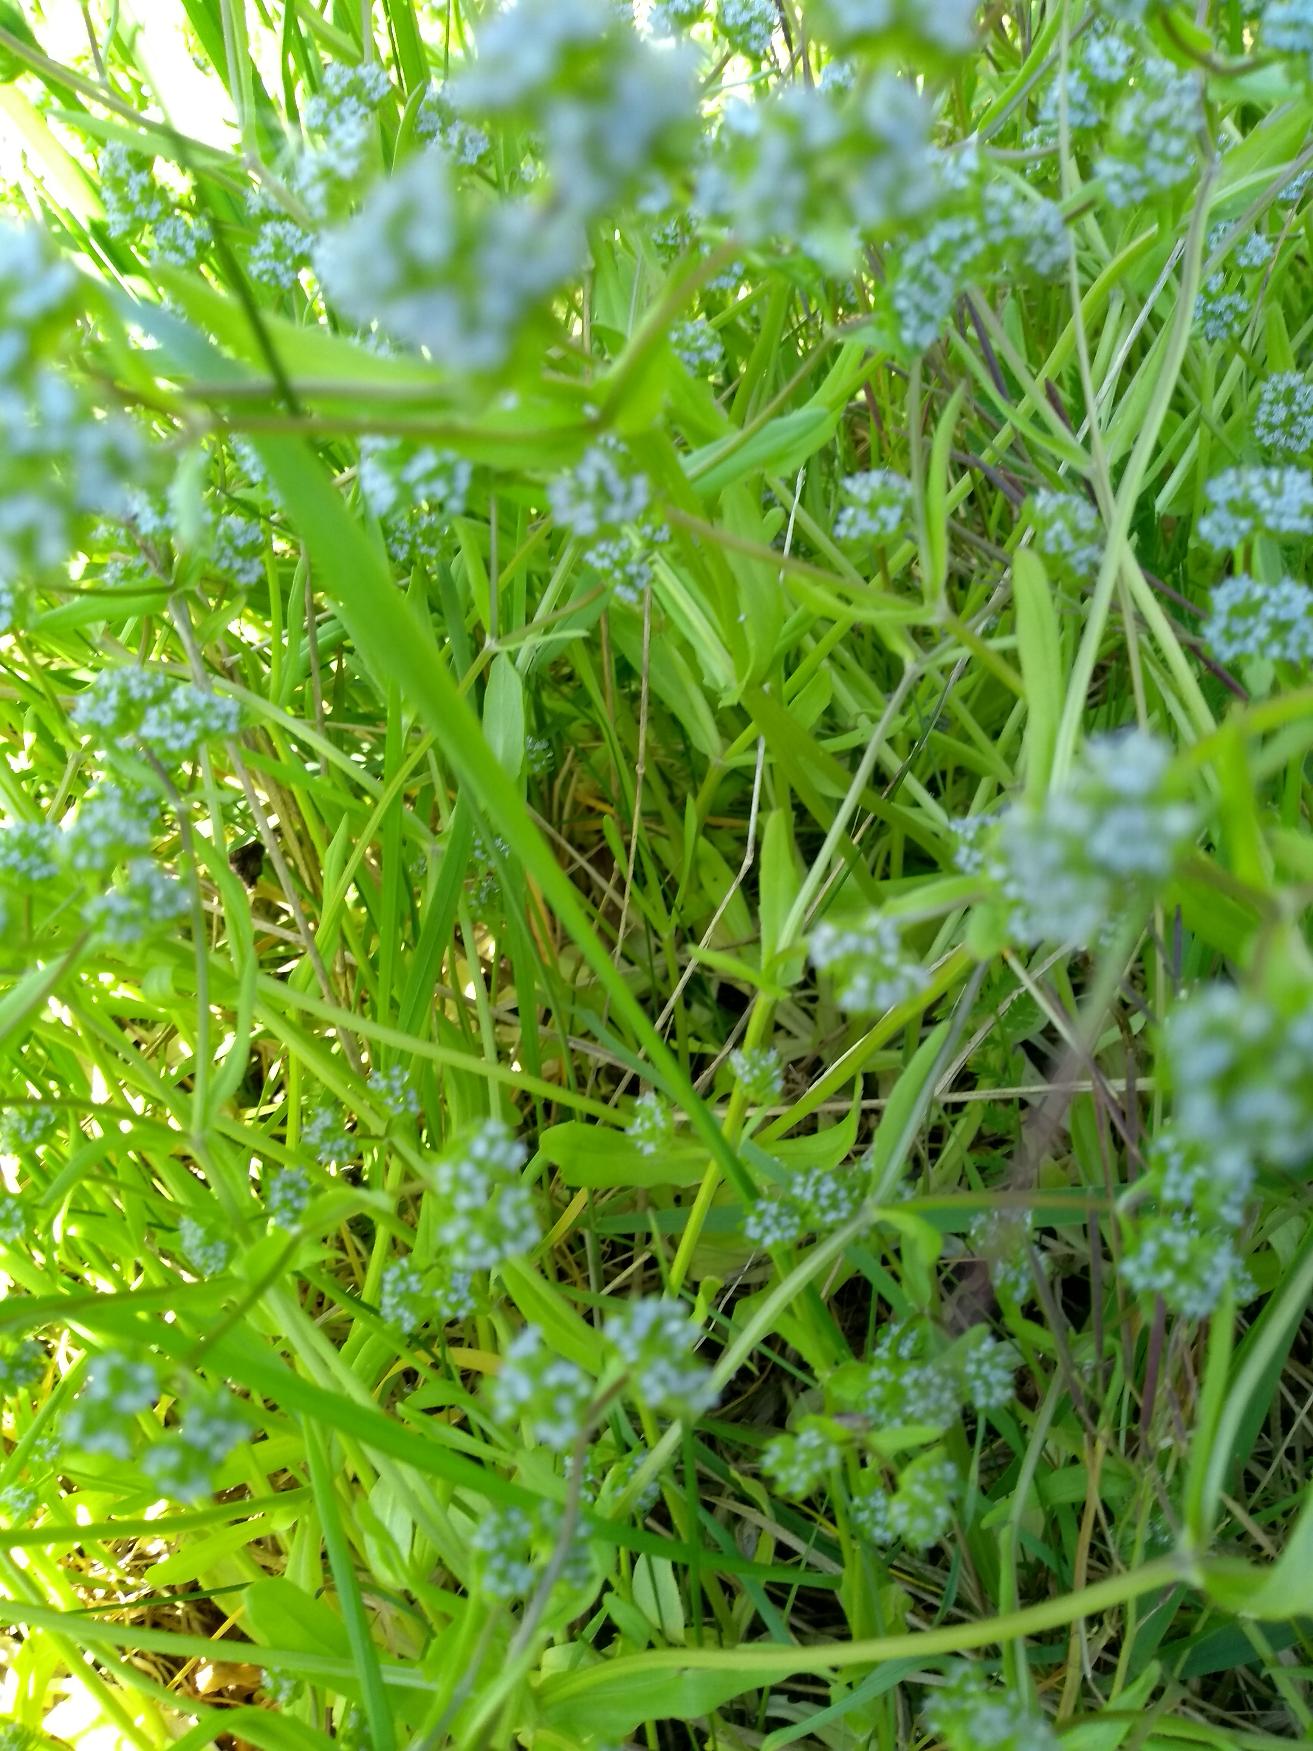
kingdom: Plantae
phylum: Tracheophyta
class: Magnoliopsida
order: Dipsacales
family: Caprifoliaceae
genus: Valerianella
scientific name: Valerianella locusta
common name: Tandfri vårsalat
